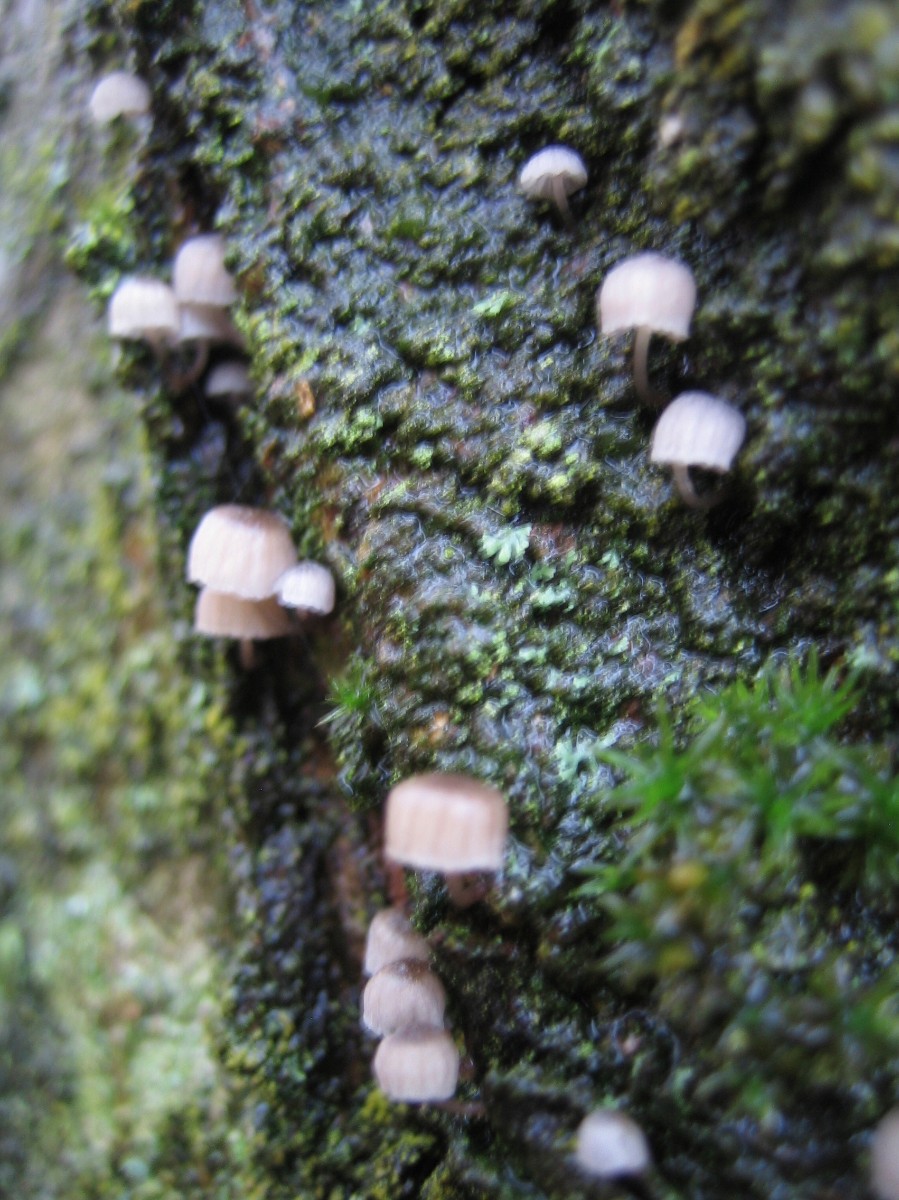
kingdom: Fungi
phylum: Basidiomycota
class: Agaricomycetes
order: Agaricales
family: Mycenaceae
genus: Mycena
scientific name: Mycena
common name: huesvamp
